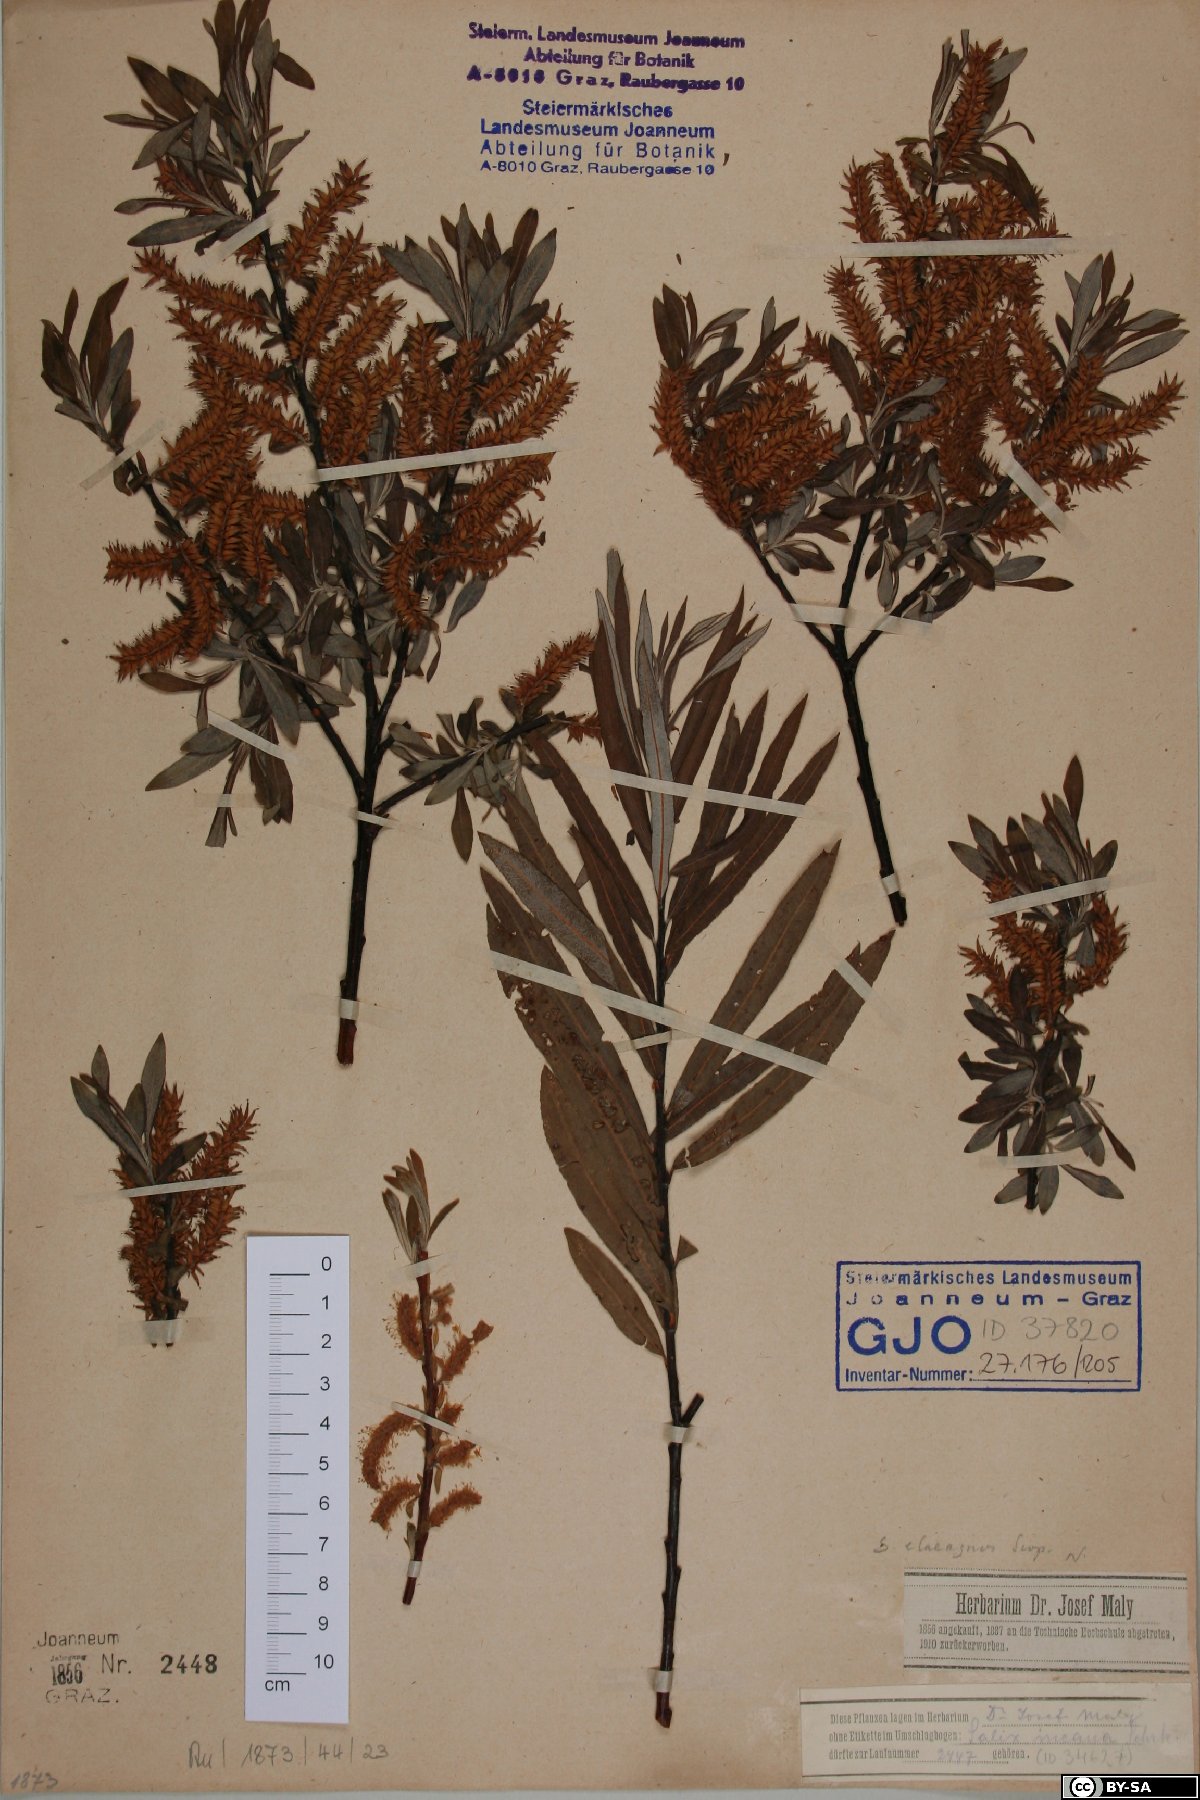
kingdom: Plantae
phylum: Tracheophyta
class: Magnoliopsida
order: Malpighiales
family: Salicaceae
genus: Salix
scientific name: Salix eleagnos
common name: Elaeagnus willow
